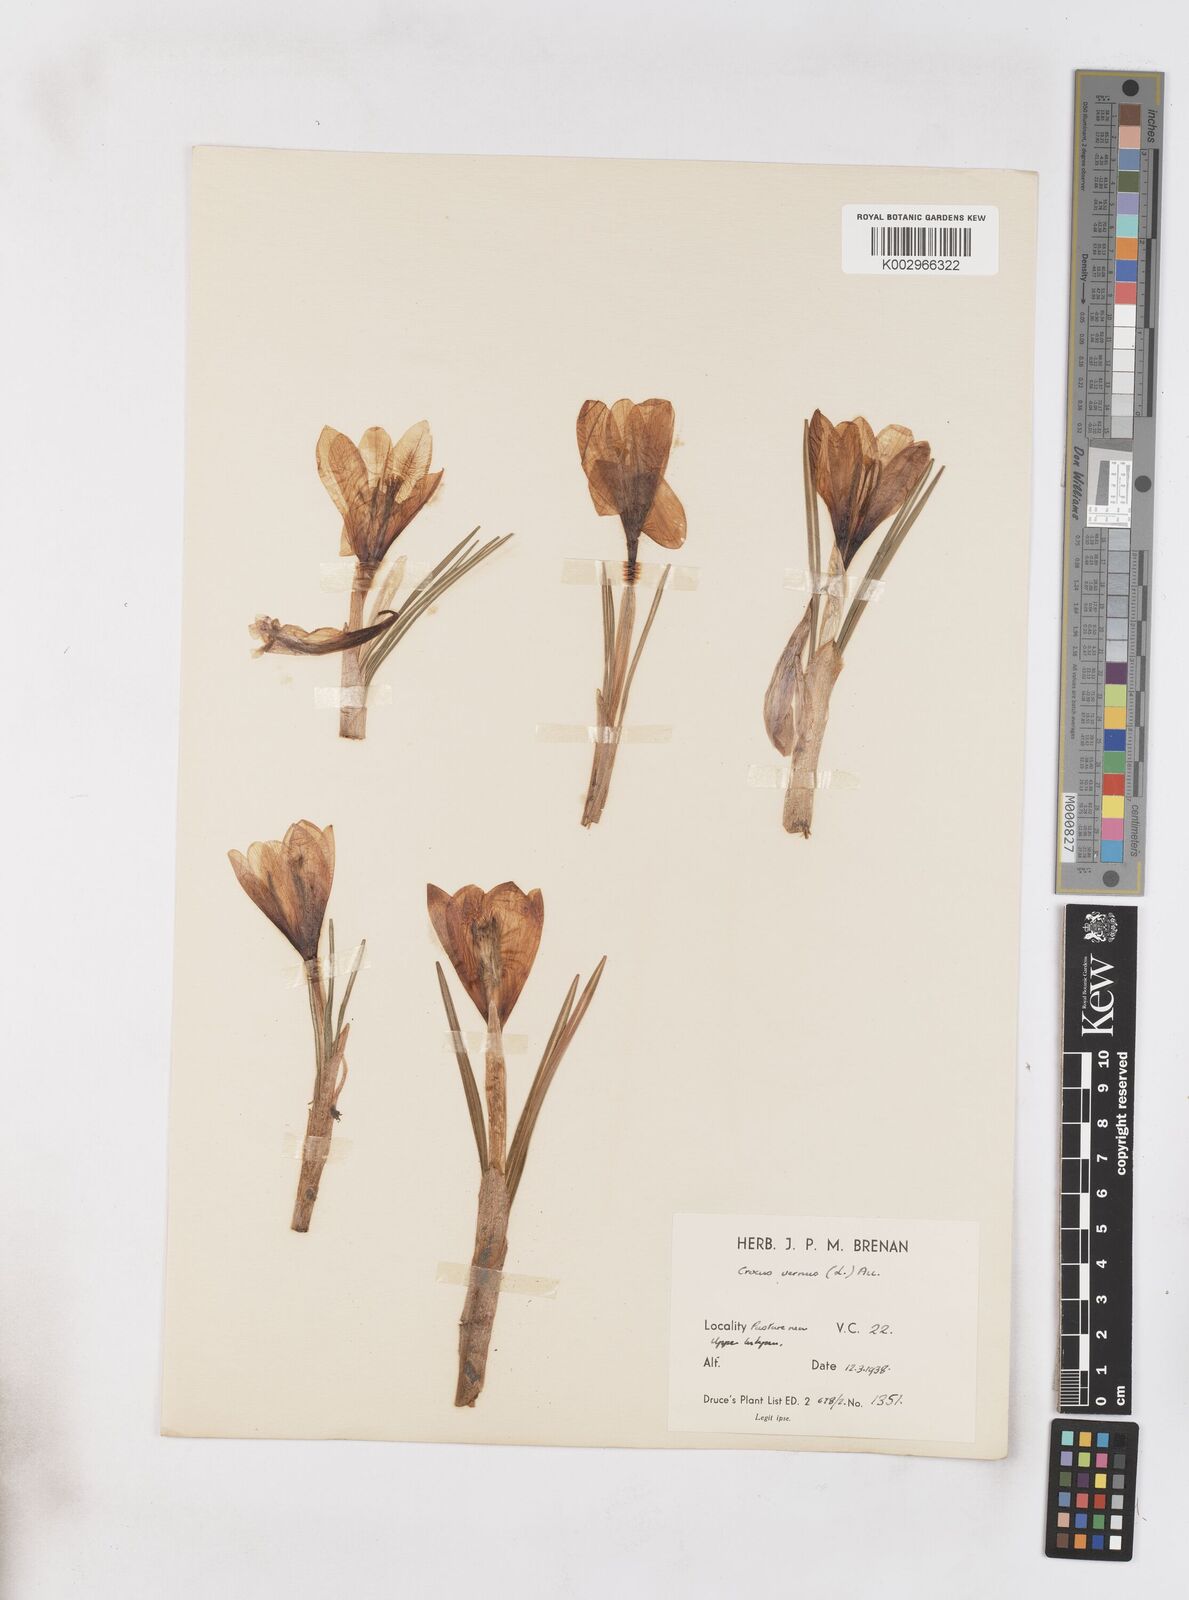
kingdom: Plantae
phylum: Tracheophyta
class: Liliopsida
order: Asparagales
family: Iridaceae
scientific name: Iridaceae
